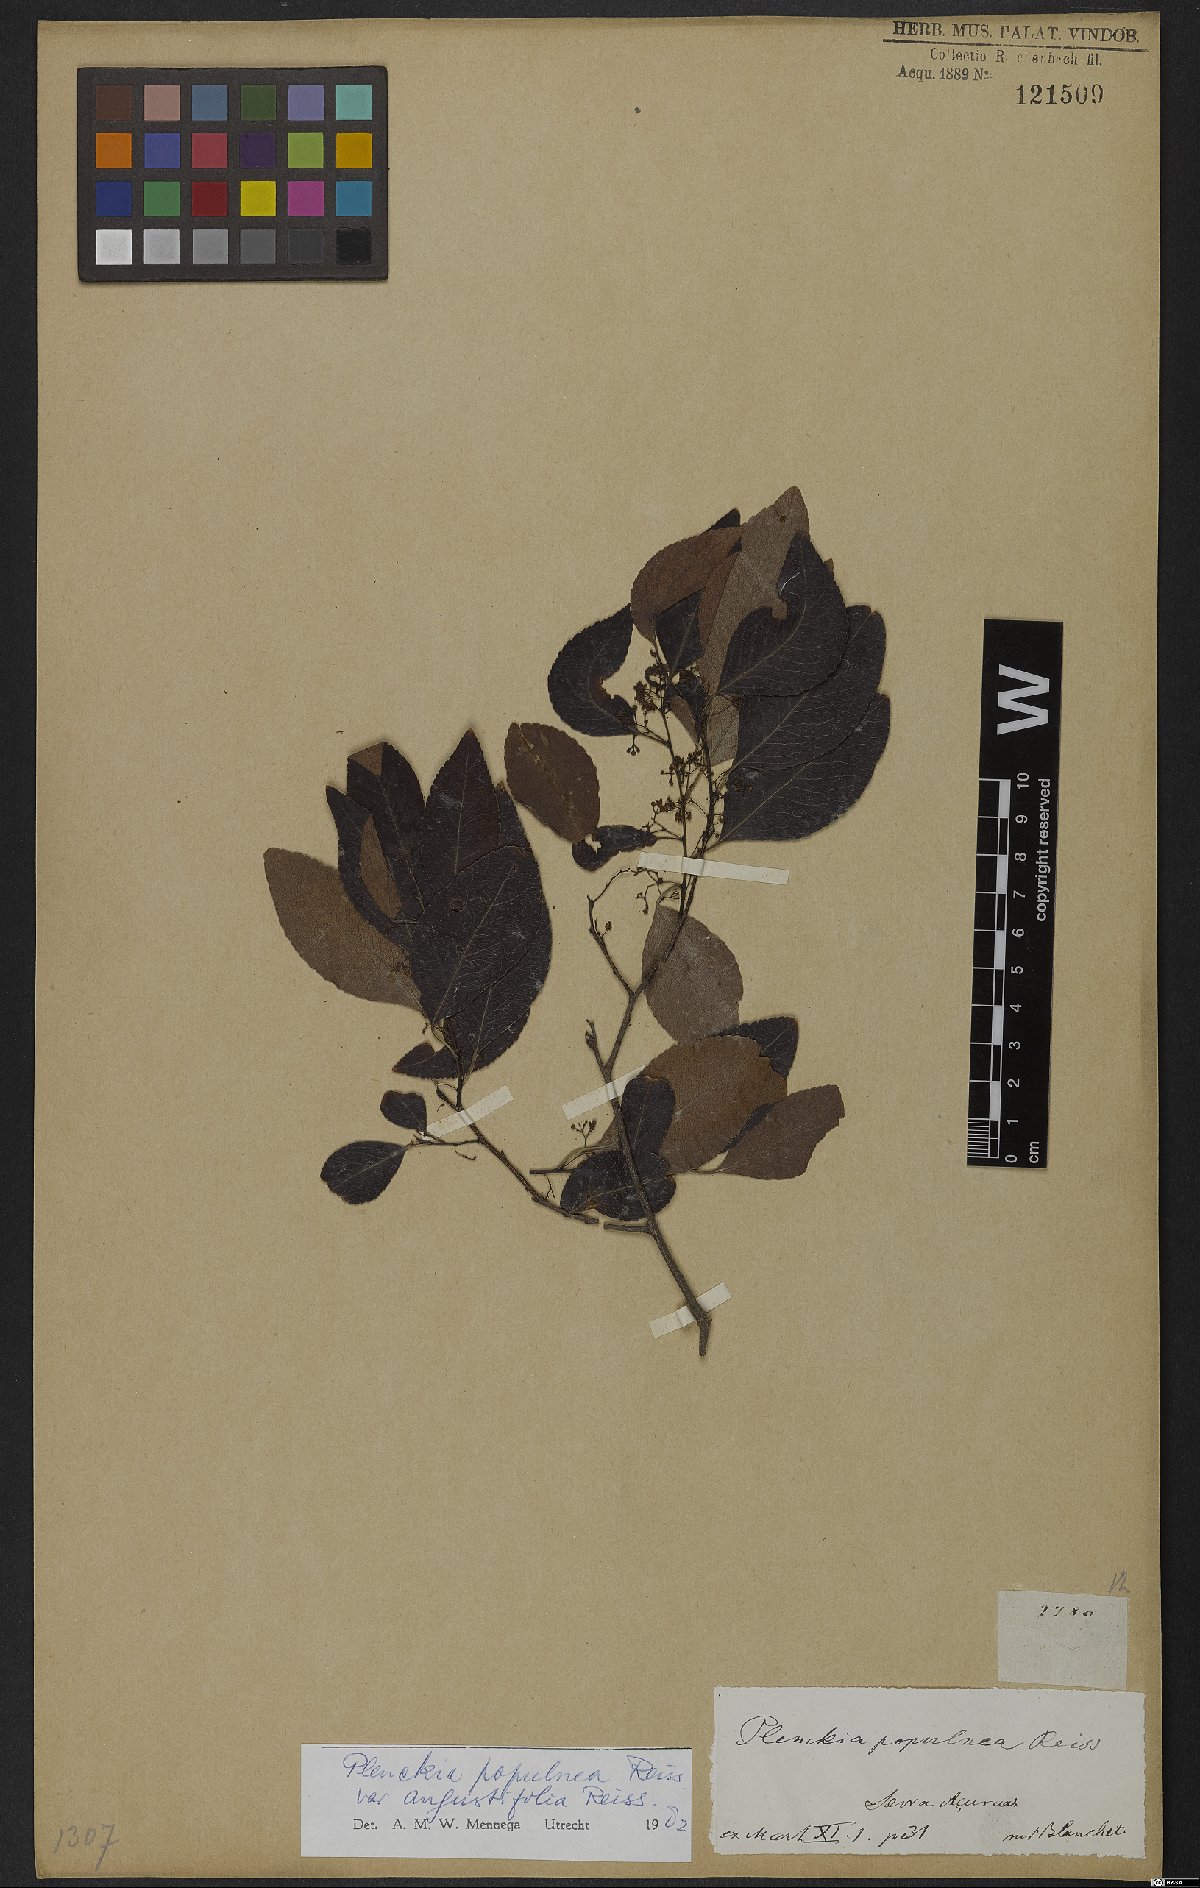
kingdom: Plantae
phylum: Tracheophyta
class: Magnoliopsida
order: Celastrales
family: Celastraceae
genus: Plenckia
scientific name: Plenckia populnea
